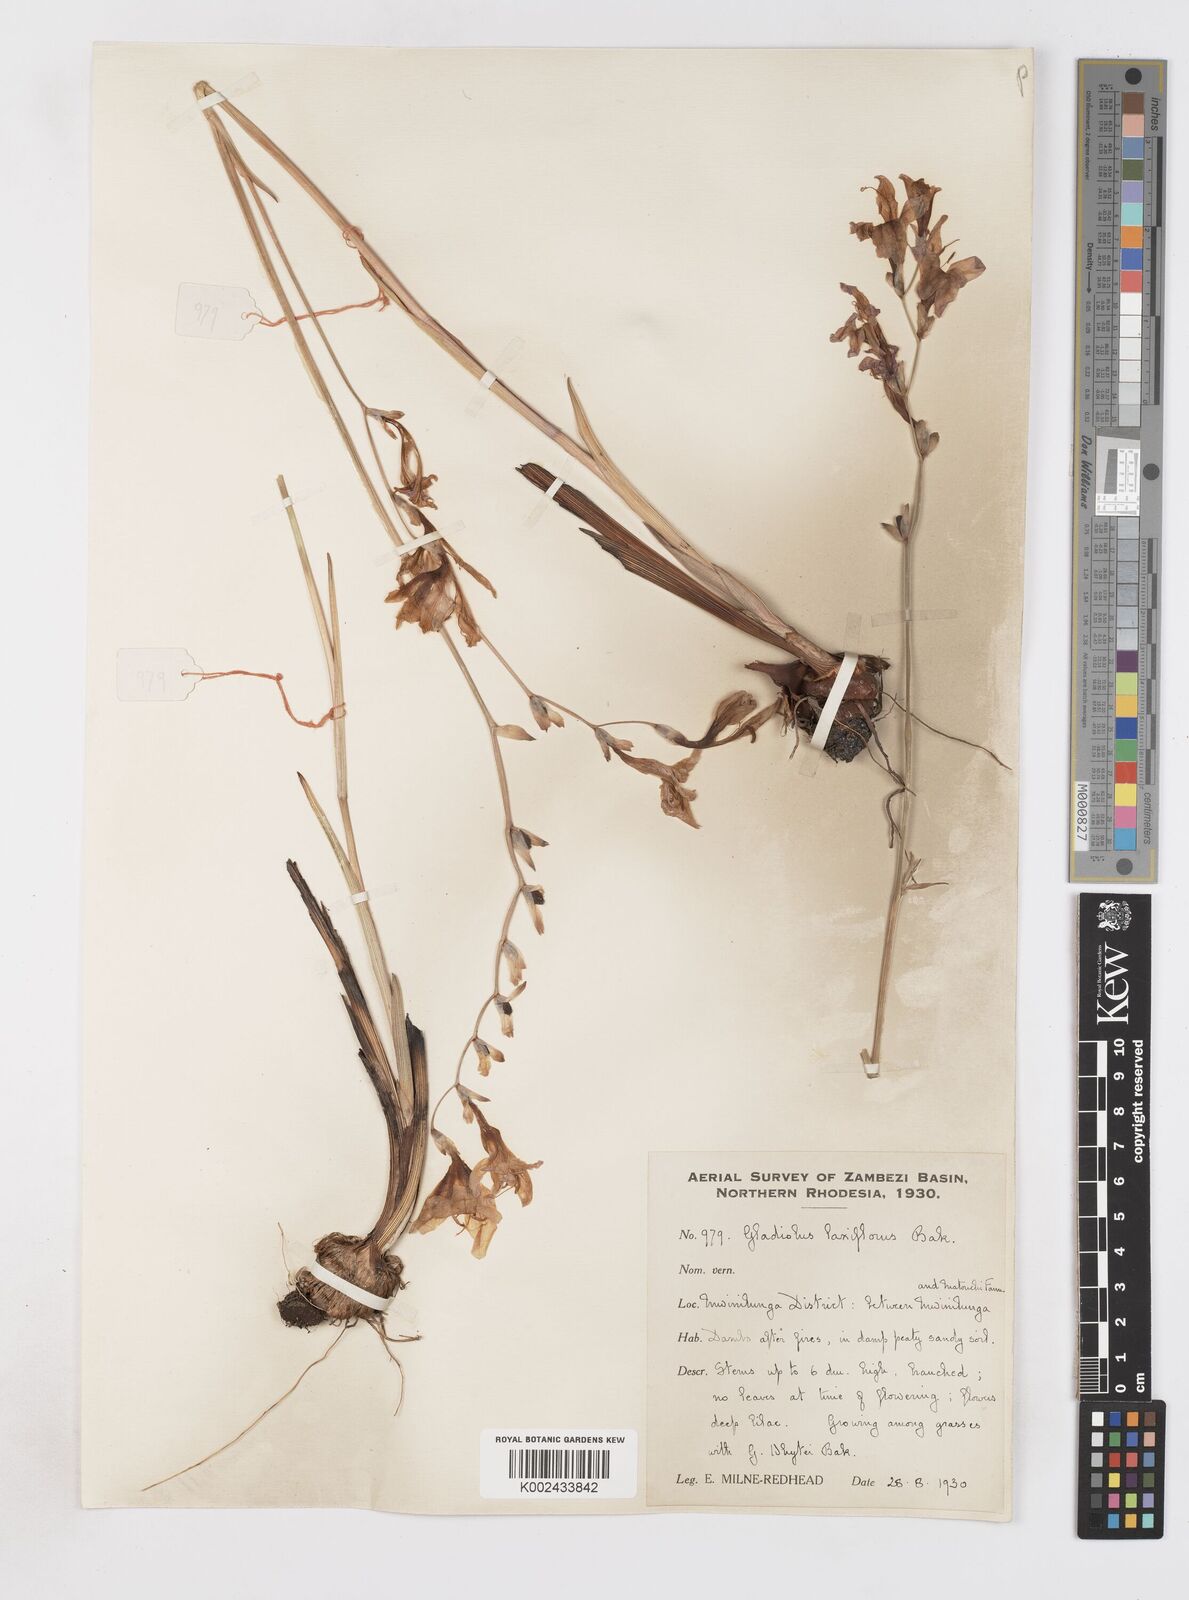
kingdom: Plantae
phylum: Tracheophyta
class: Liliopsida
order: Asparagales
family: Iridaceae
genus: Gladiolus
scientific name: Gladiolus laxiflorus
